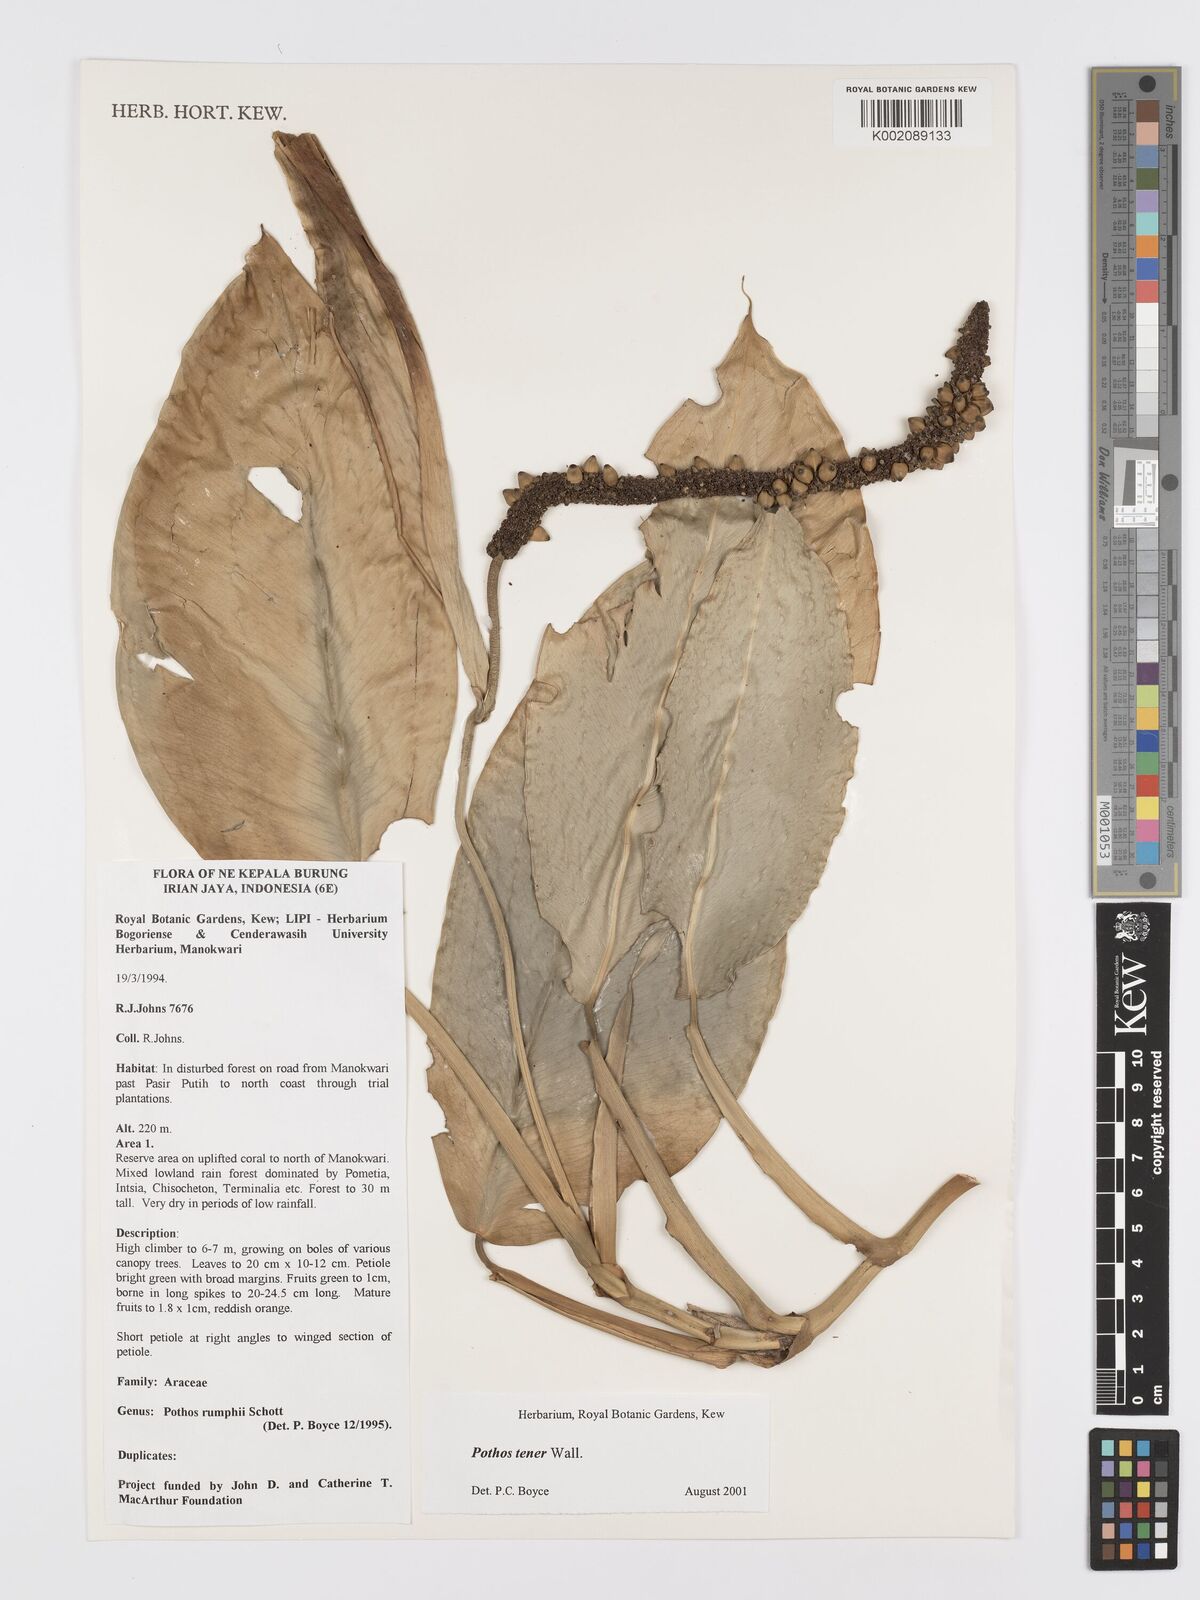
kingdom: Plantae
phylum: Tracheophyta
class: Liliopsida
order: Alismatales
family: Araceae
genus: Pothos
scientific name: Pothos tener
